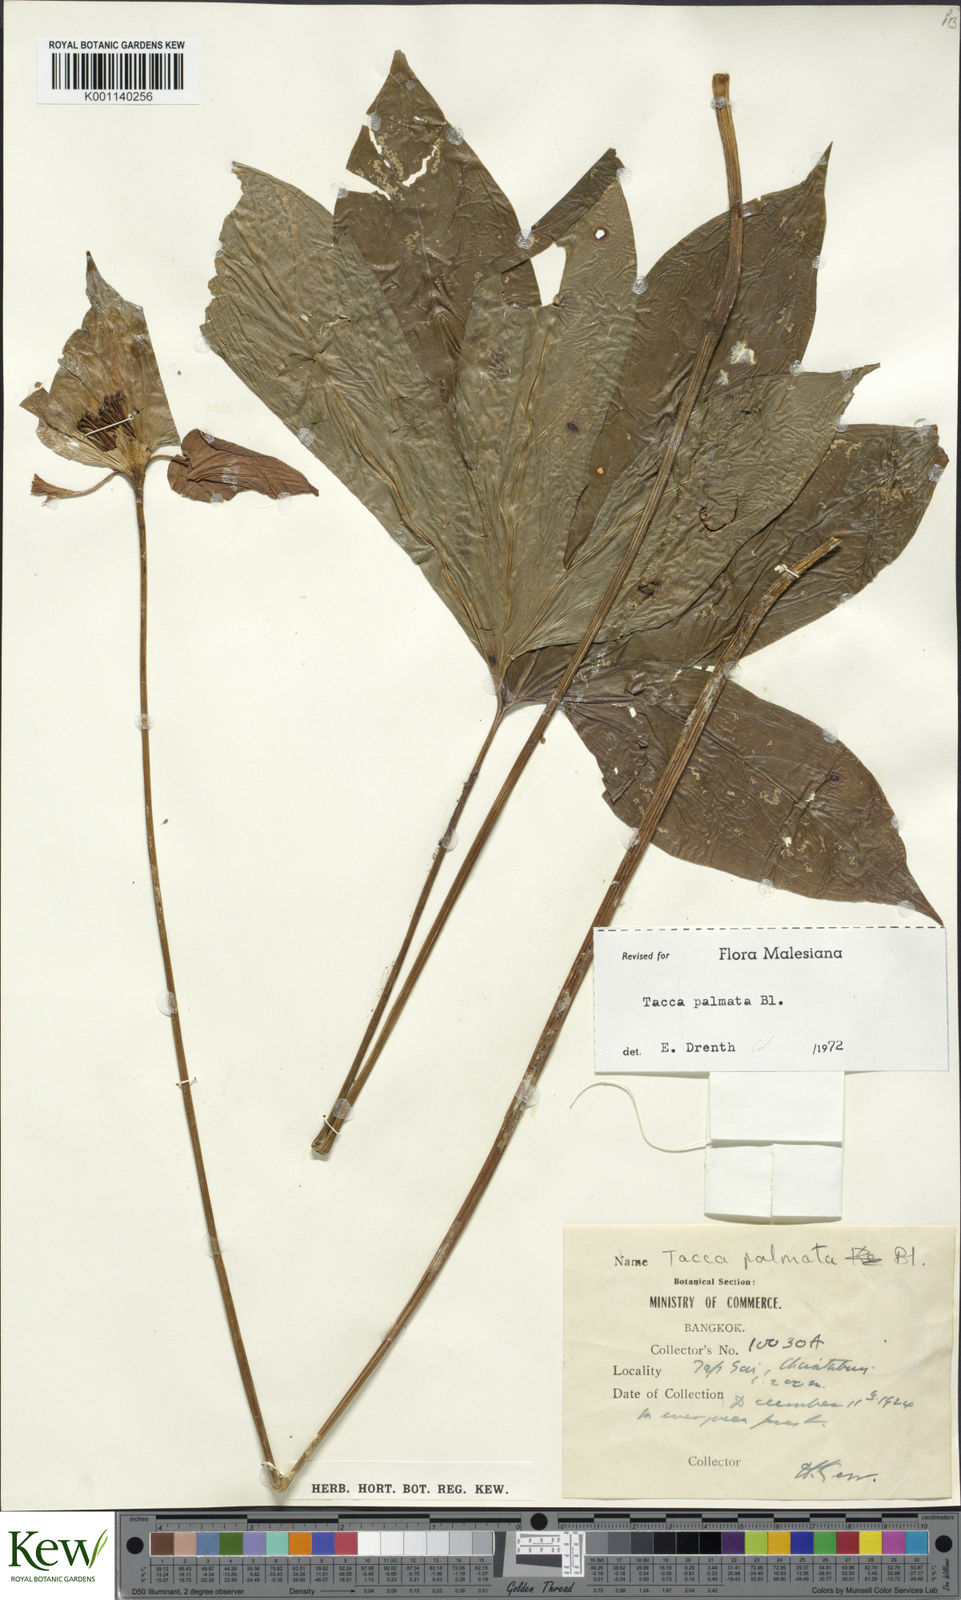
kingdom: Plantae
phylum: Tracheophyta
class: Liliopsida
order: Dioscoreales
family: Dioscoreaceae
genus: Tacca
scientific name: Tacca palmata
